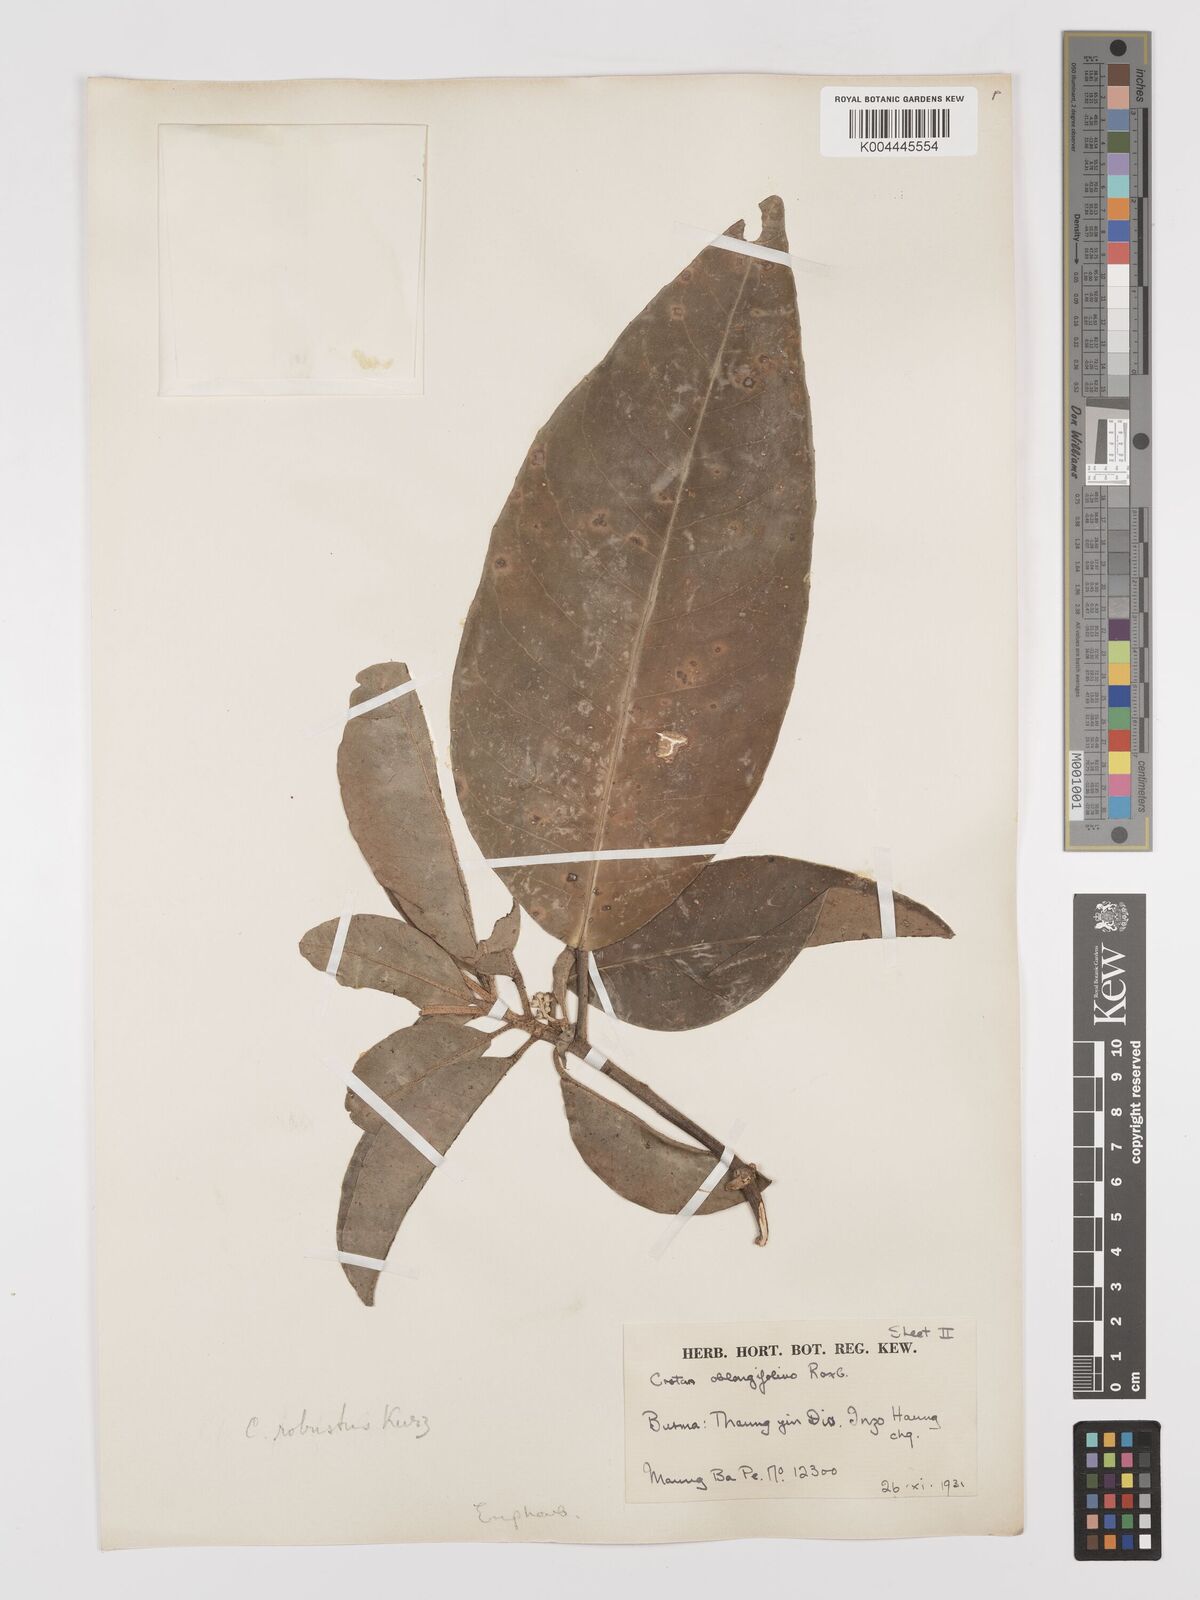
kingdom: Plantae
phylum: Tracheophyta
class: Magnoliopsida
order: Malpighiales
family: Euphorbiaceae
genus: Croton
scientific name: Croton robustus
